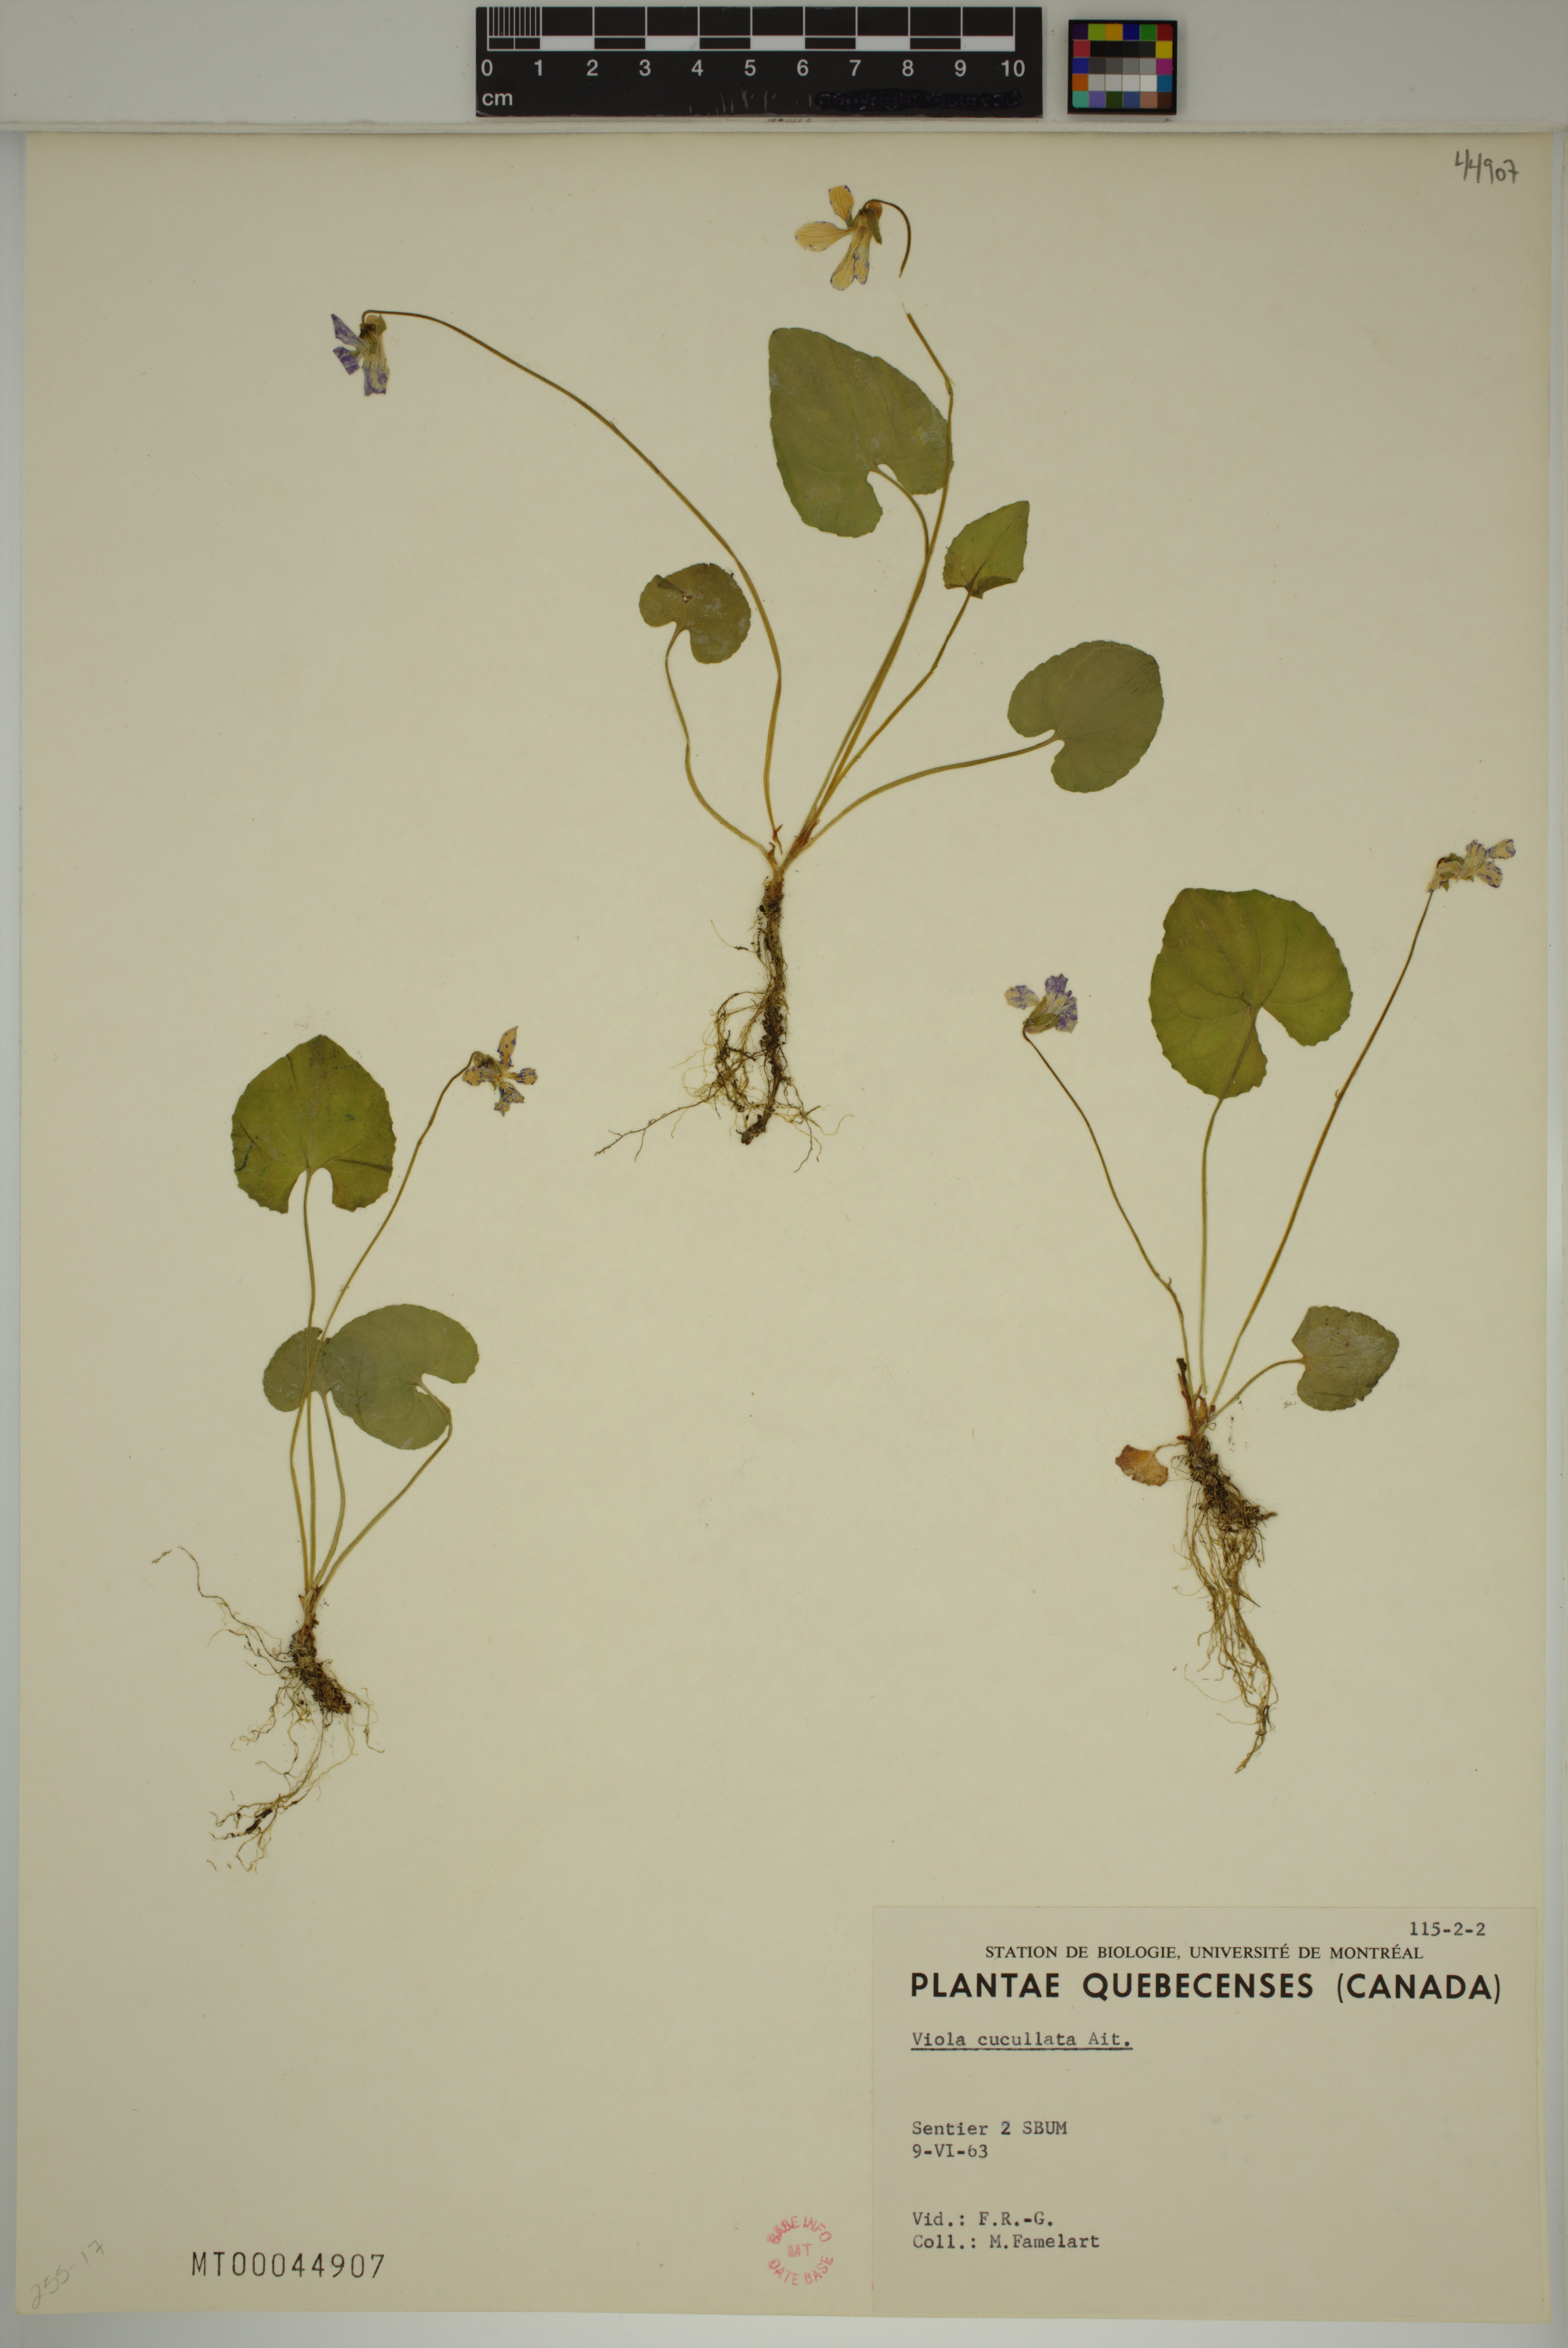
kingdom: Plantae
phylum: Tracheophyta
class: Magnoliopsida
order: Malpighiales
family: Violaceae
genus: Viola
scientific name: Viola cucullata
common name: Marsh blue violet
